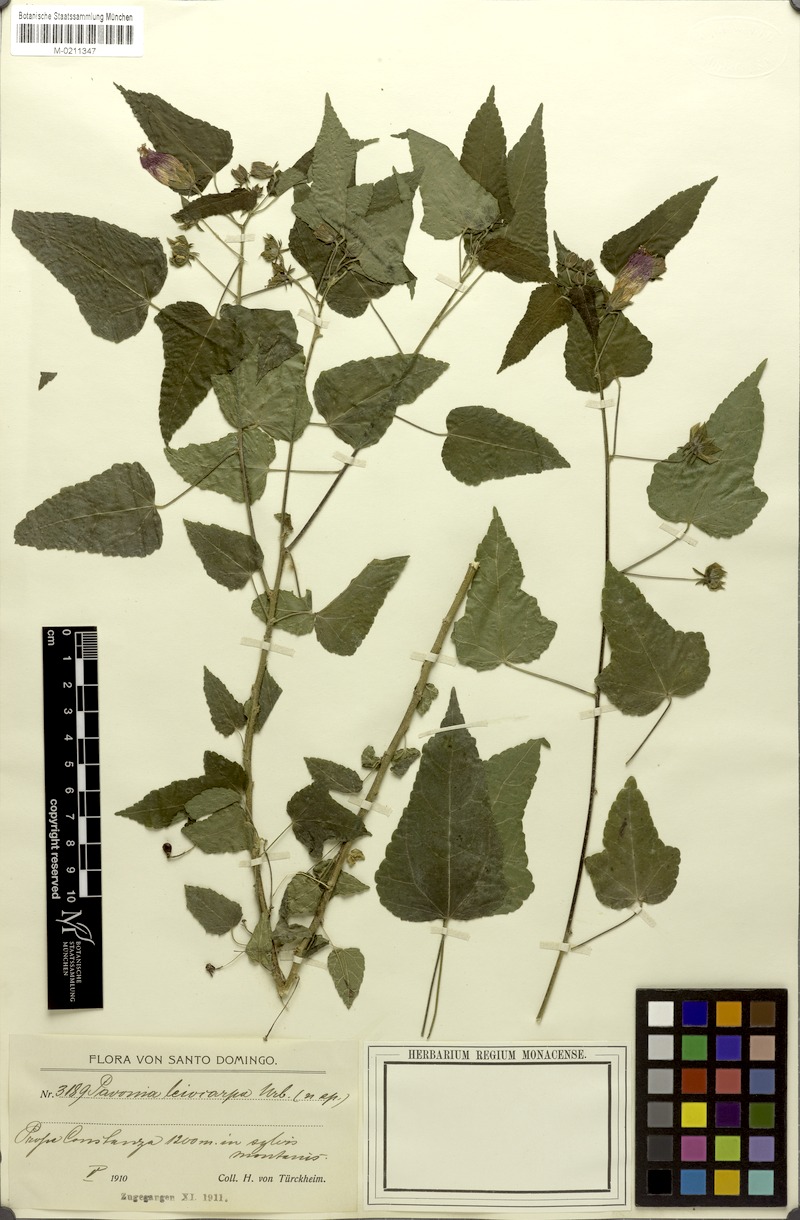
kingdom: Plantae
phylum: Tracheophyta
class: Magnoliopsida
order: Malvales
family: Malvaceae
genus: Pavonia
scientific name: Pavonia leiocarpa
